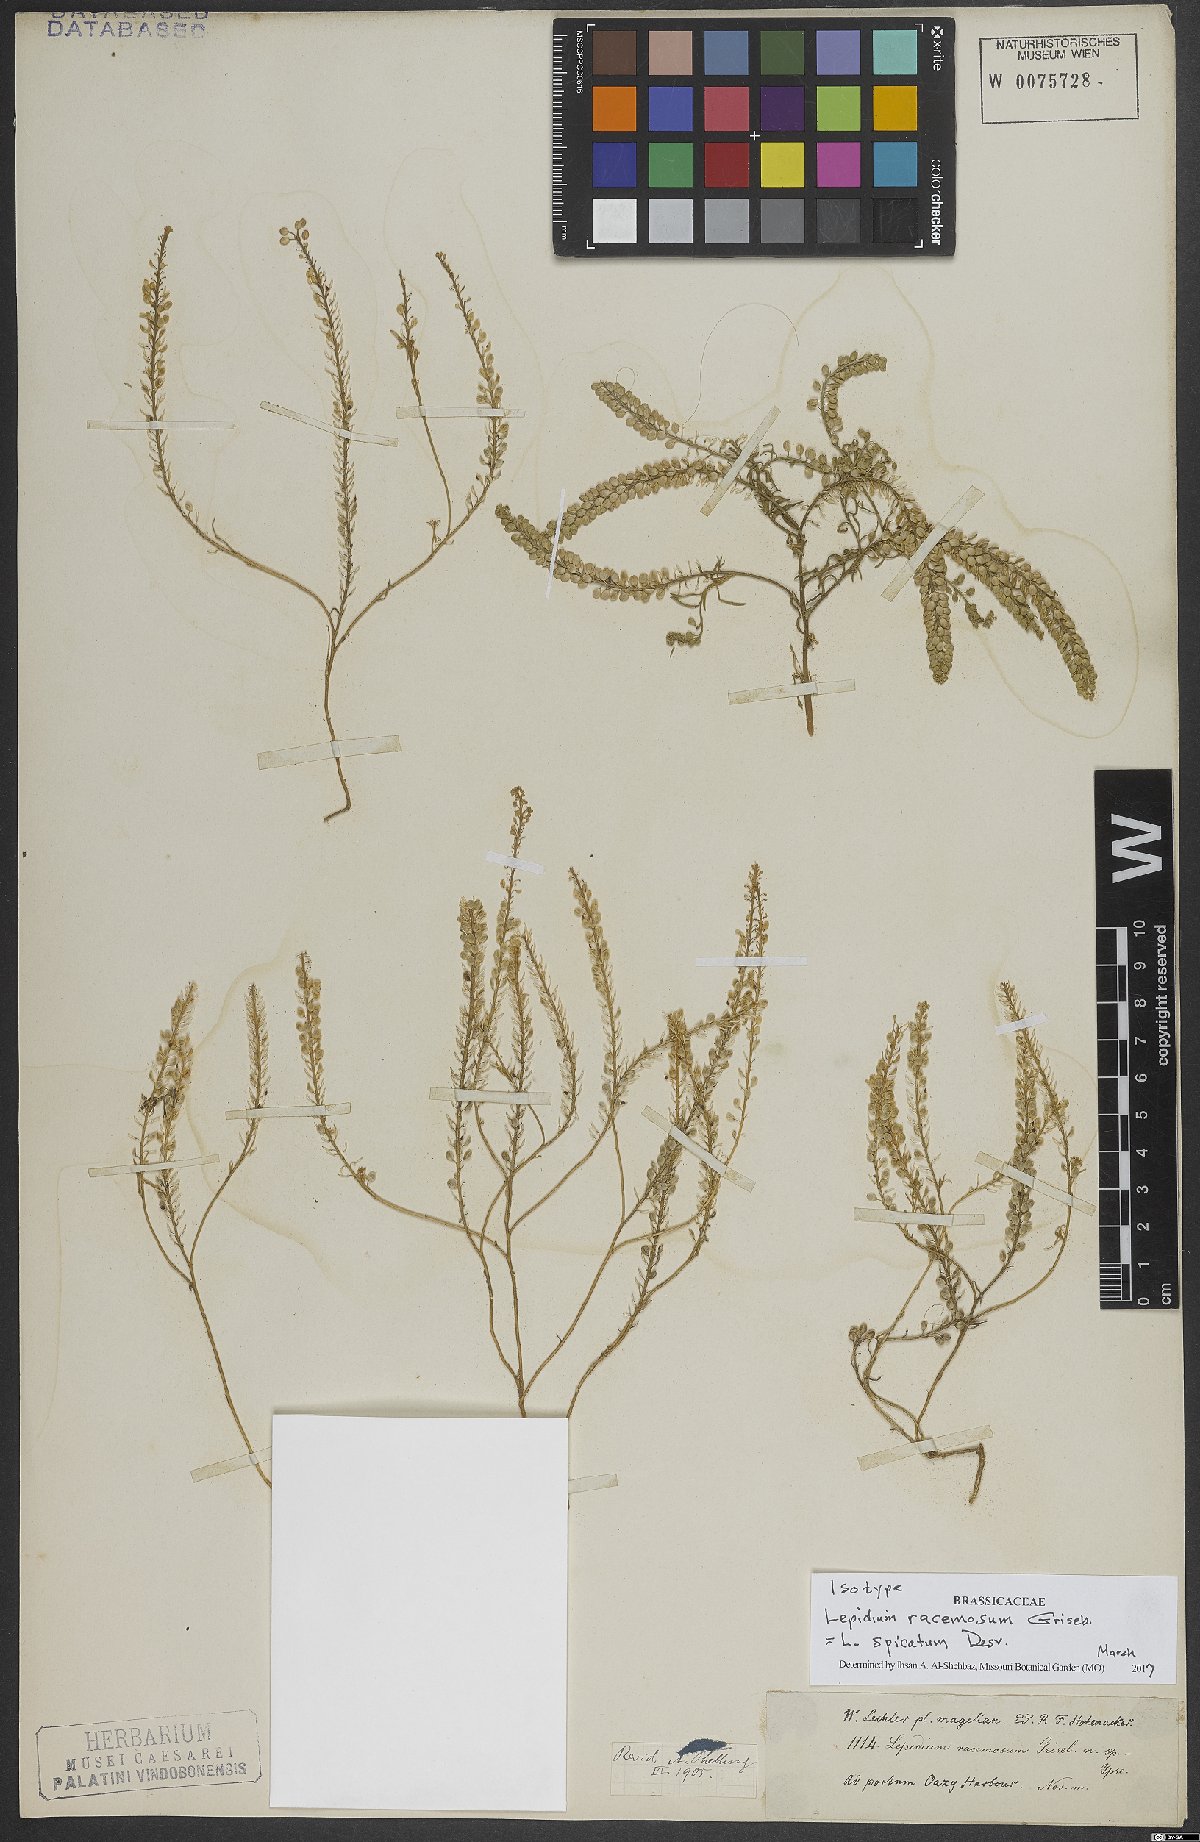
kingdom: Plantae
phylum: Tracheophyta
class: Magnoliopsida
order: Brassicales
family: Brassicaceae
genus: Lepidium
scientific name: Lepidium spicatum
